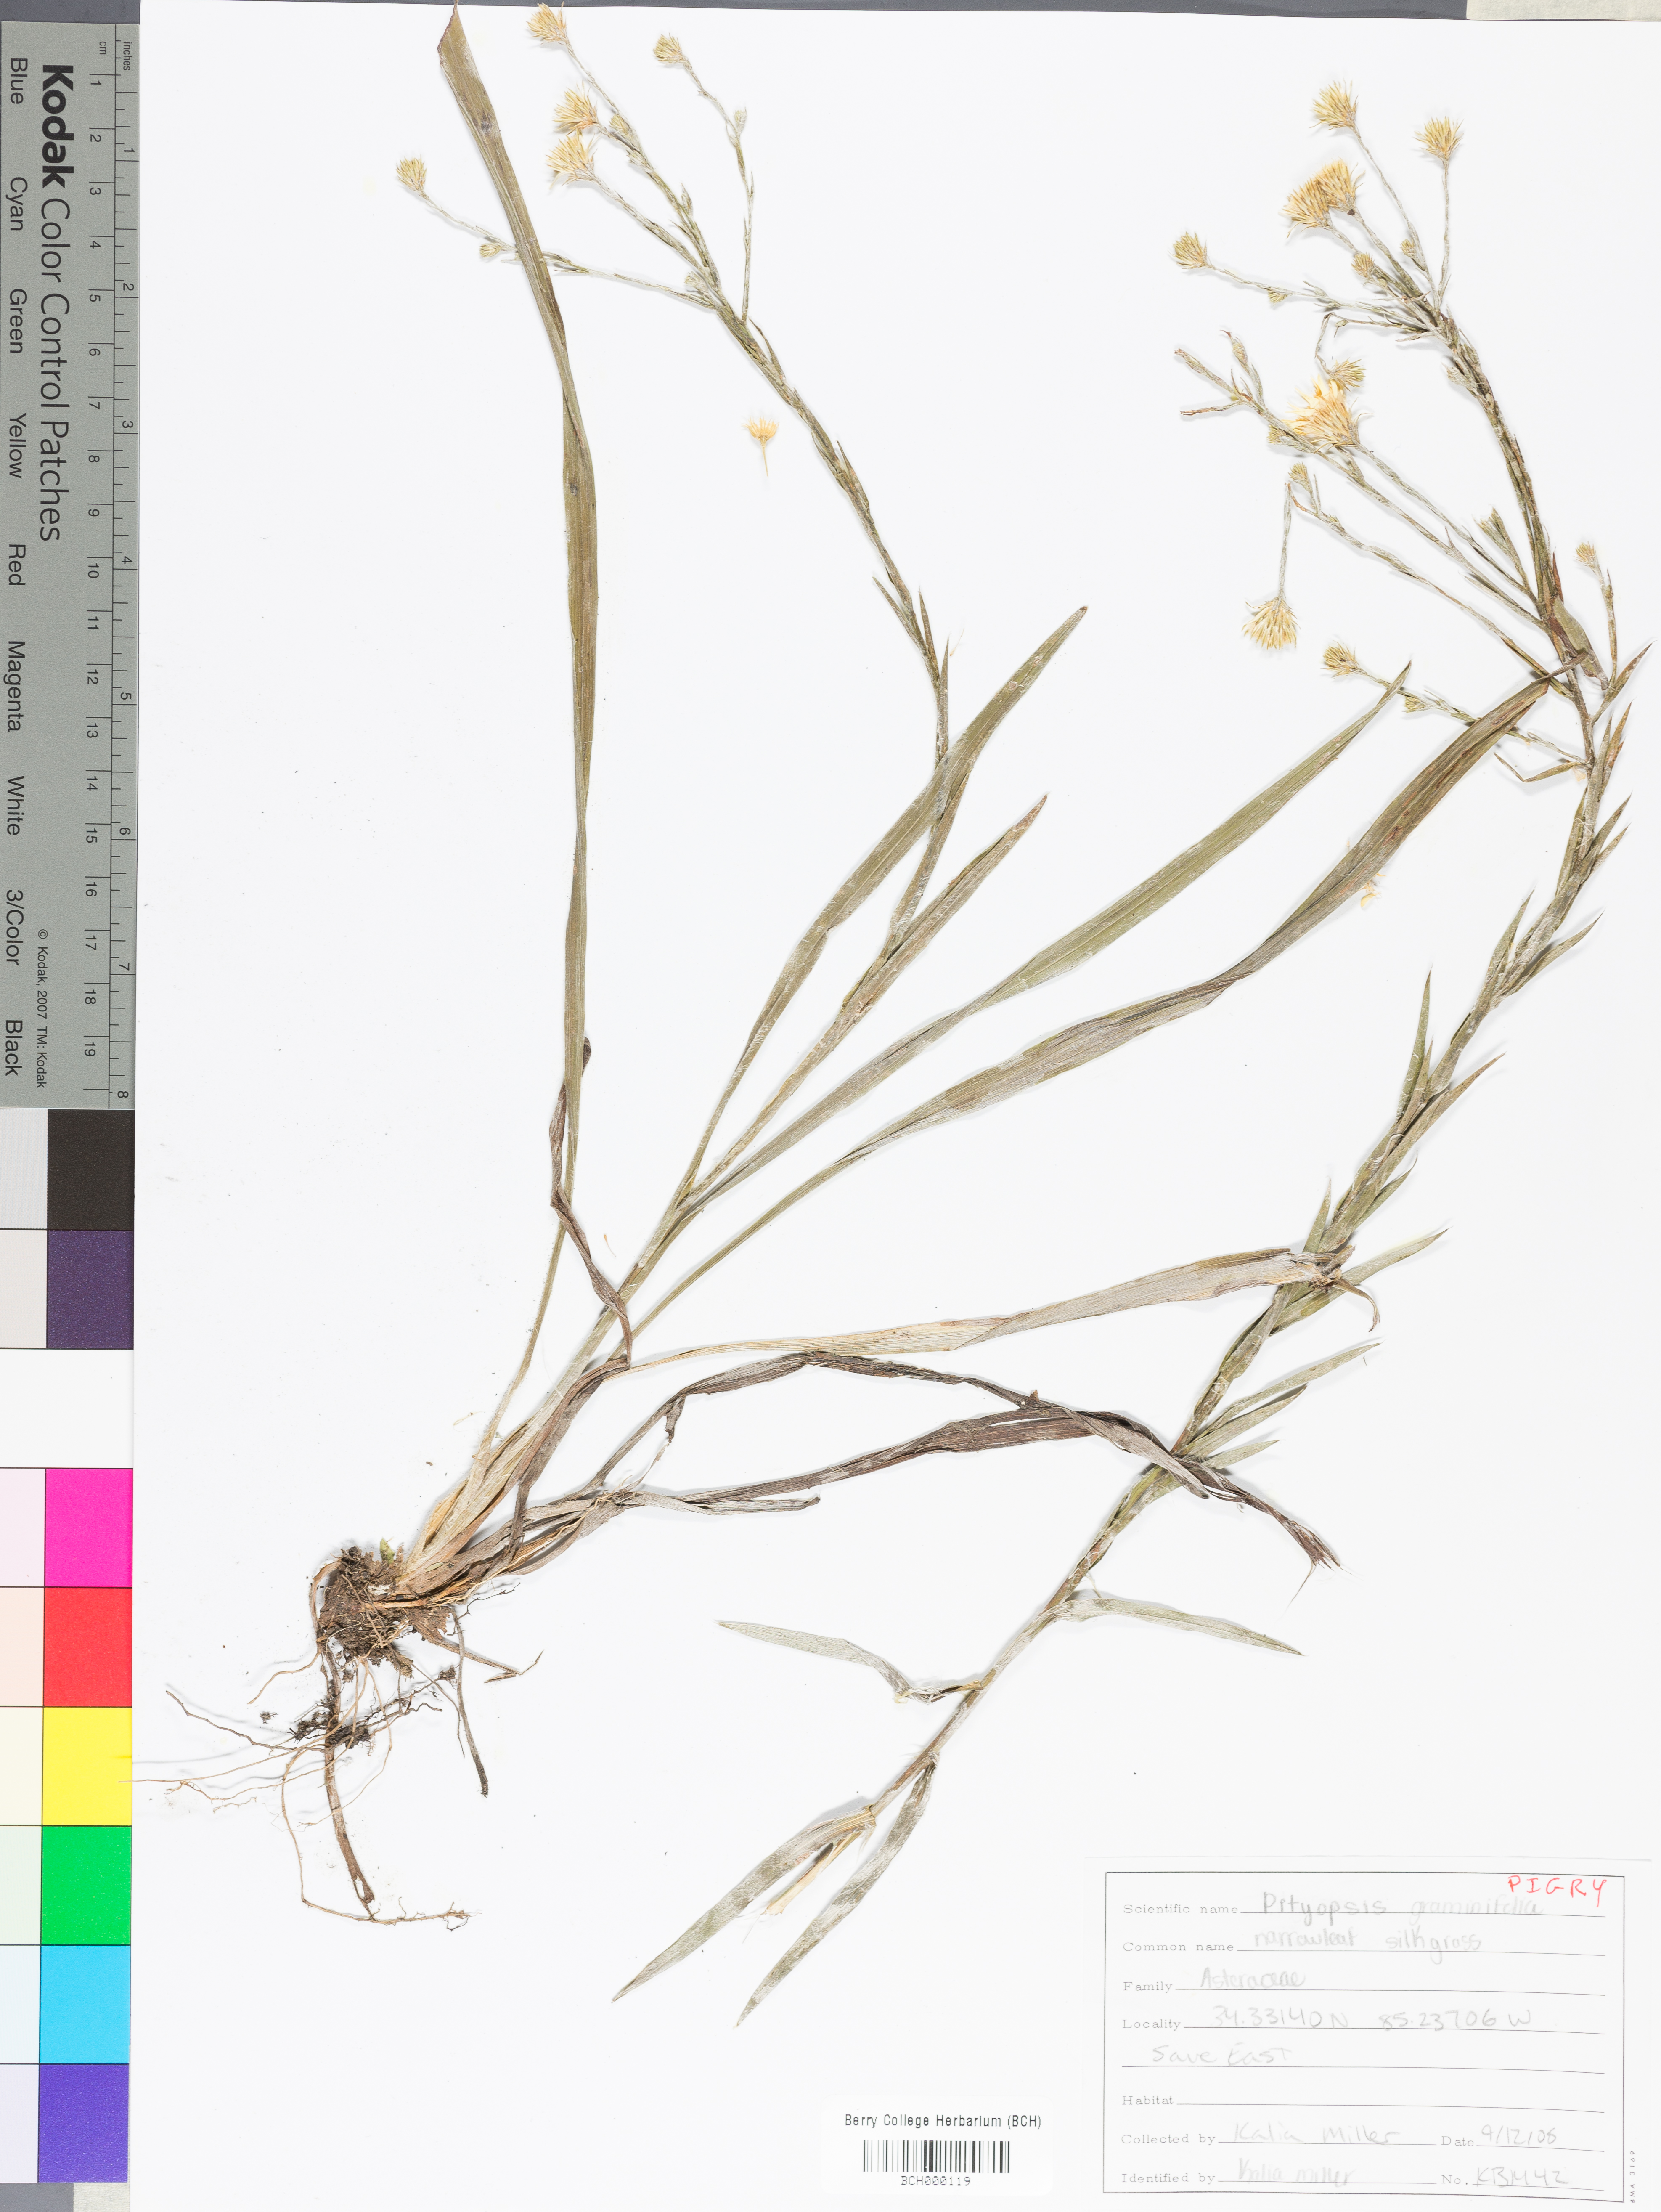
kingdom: Plantae
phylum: Tracheophyta
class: Magnoliopsida
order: Asterales
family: Asteraceae
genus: Pityopsis
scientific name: Pityopsis graminifolia
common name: Grass-leaf golden-aster
